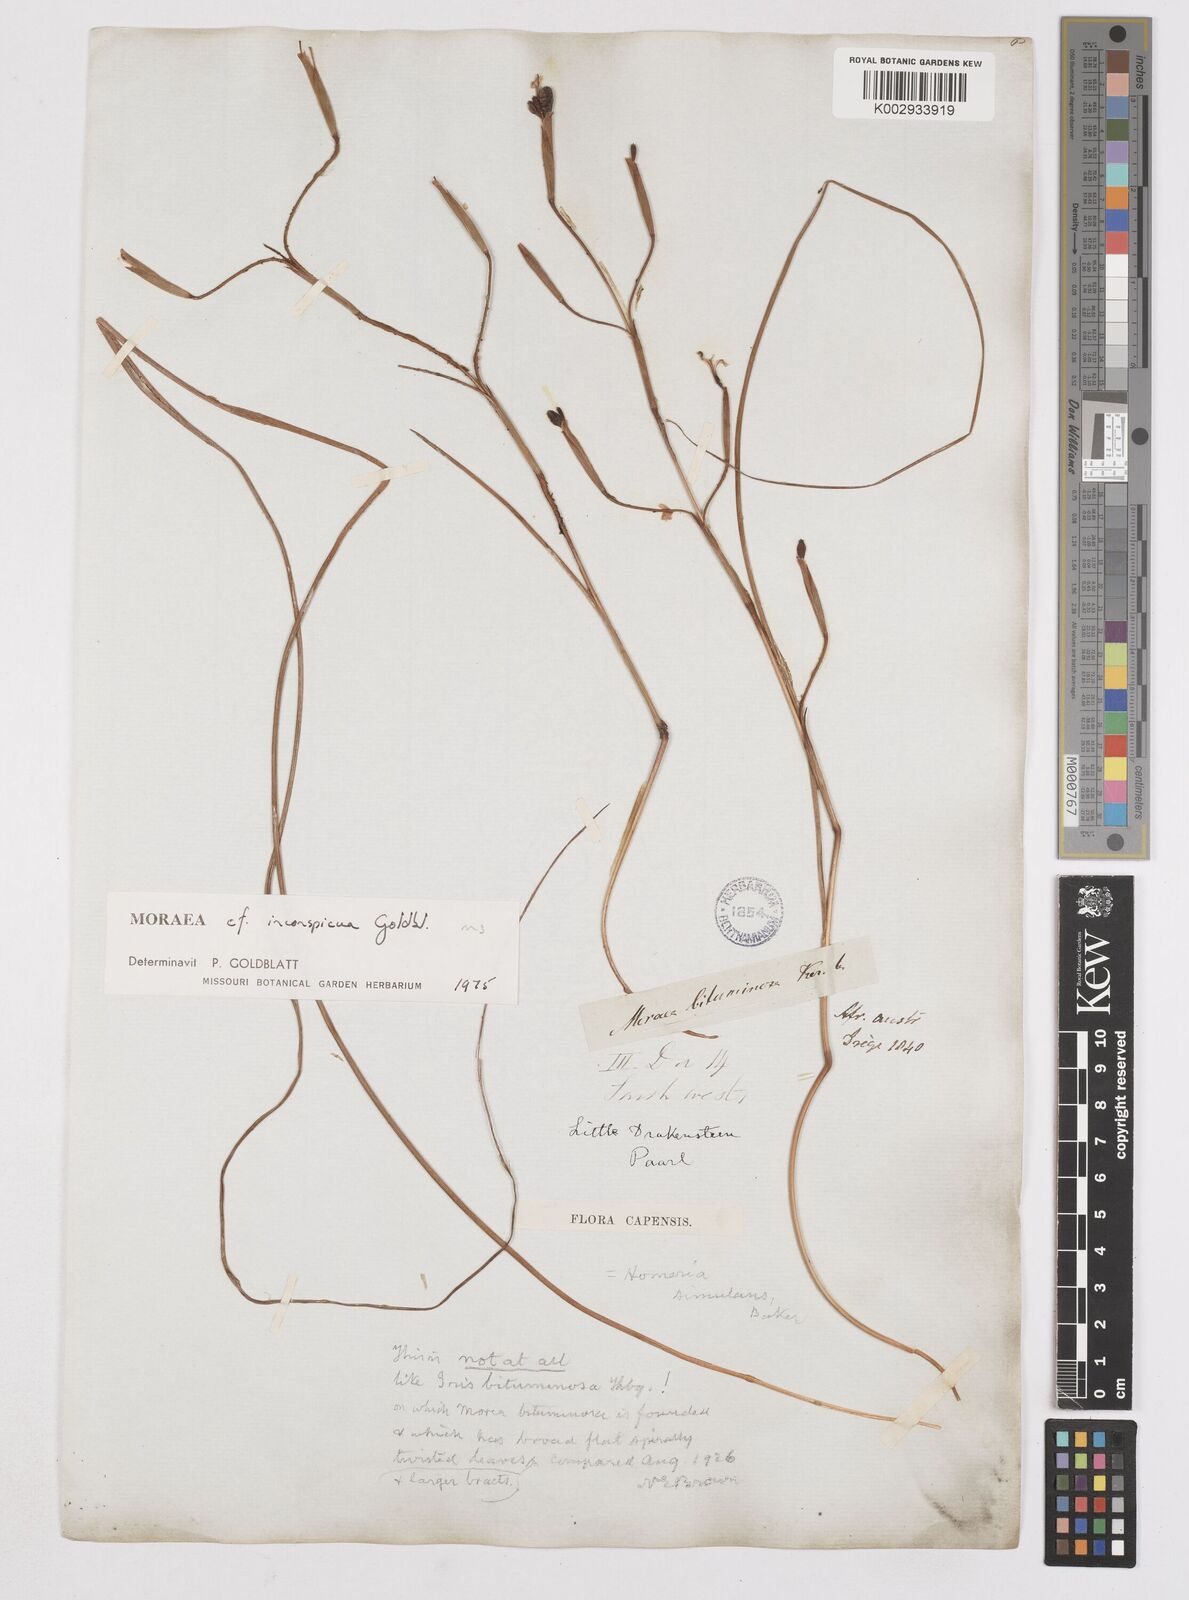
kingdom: Plantae
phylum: Tracheophyta
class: Liliopsida
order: Asparagales
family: Iridaceae
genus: Moraea
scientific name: Moraea inconspicua
